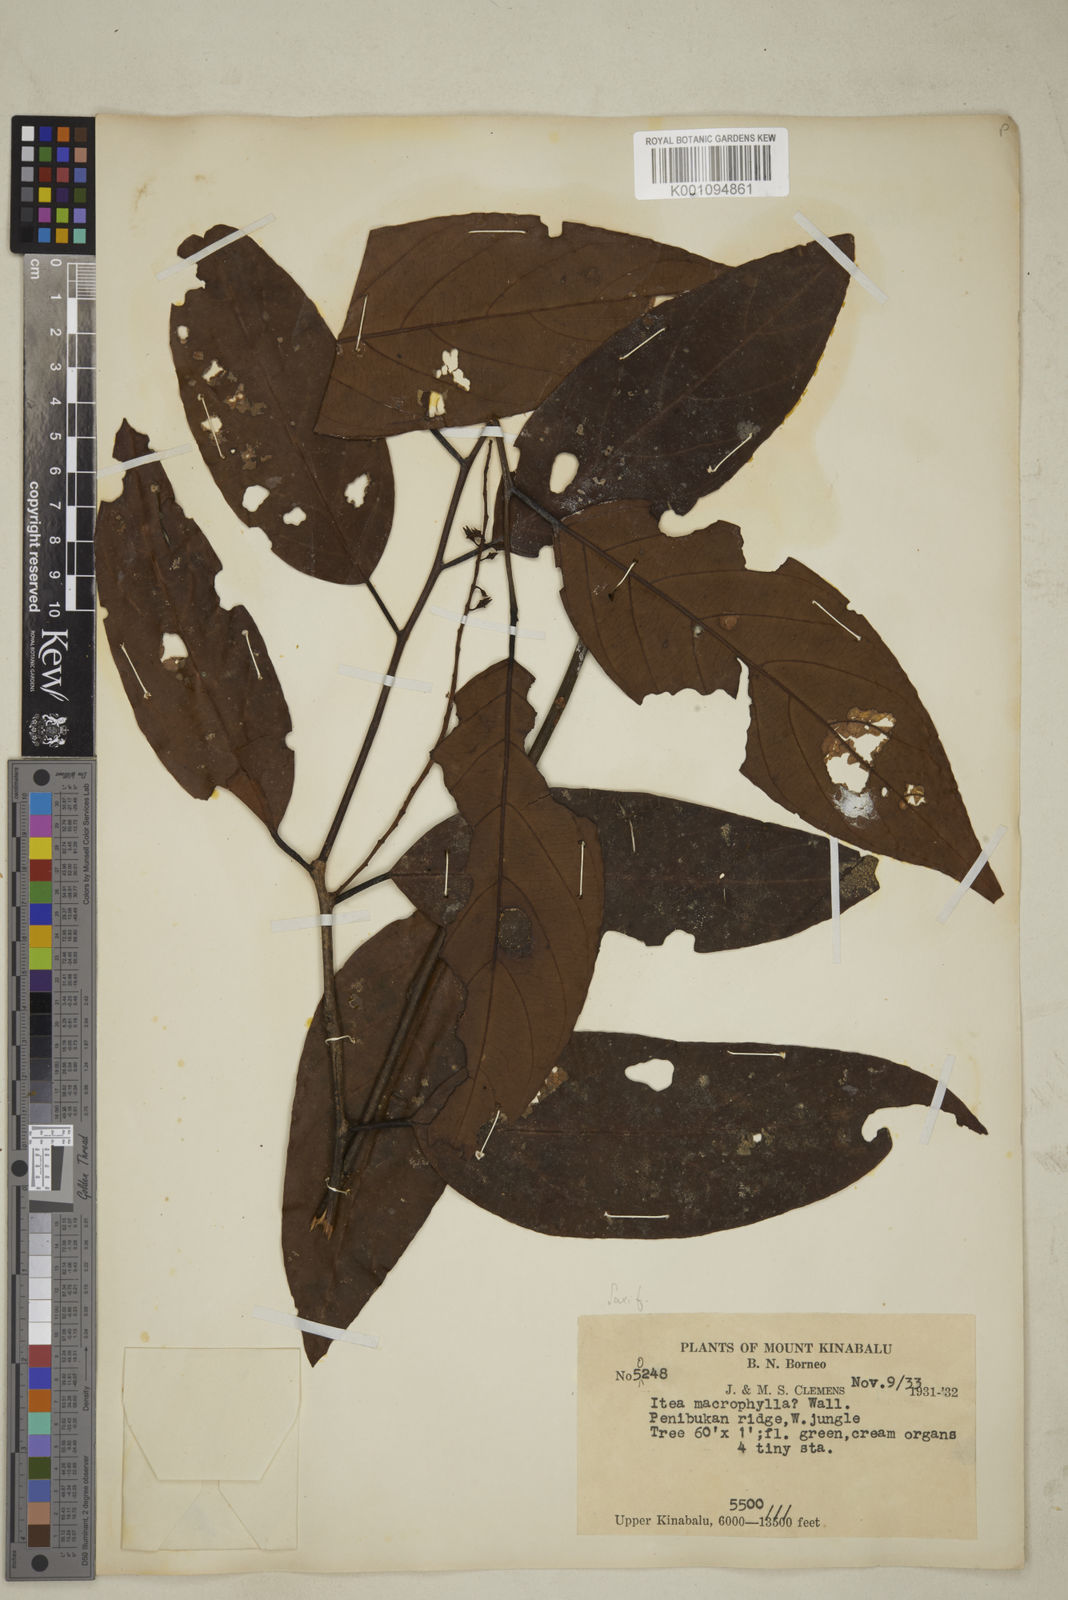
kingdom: Plantae
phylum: Tracheophyta
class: Magnoliopsida
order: Saxifragales
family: Iteaceae
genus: Itea
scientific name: Itea macrophylla
